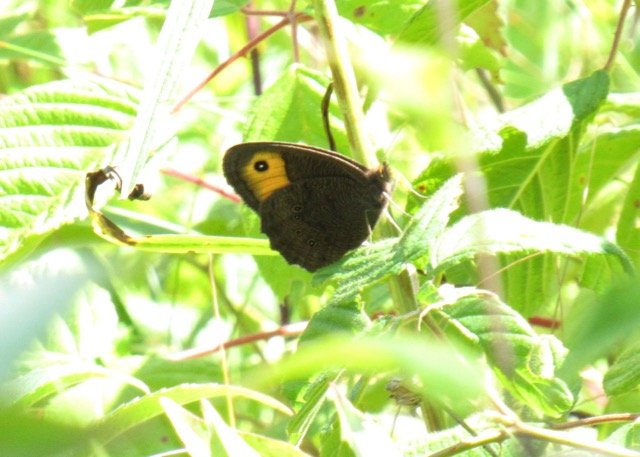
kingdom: Animalia
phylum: Arthropoda
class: Insecta
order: Lepidoptera
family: Nymphalidae
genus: Cercyonis
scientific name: Cercyonis pegala
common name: Common Wood-Nymph
